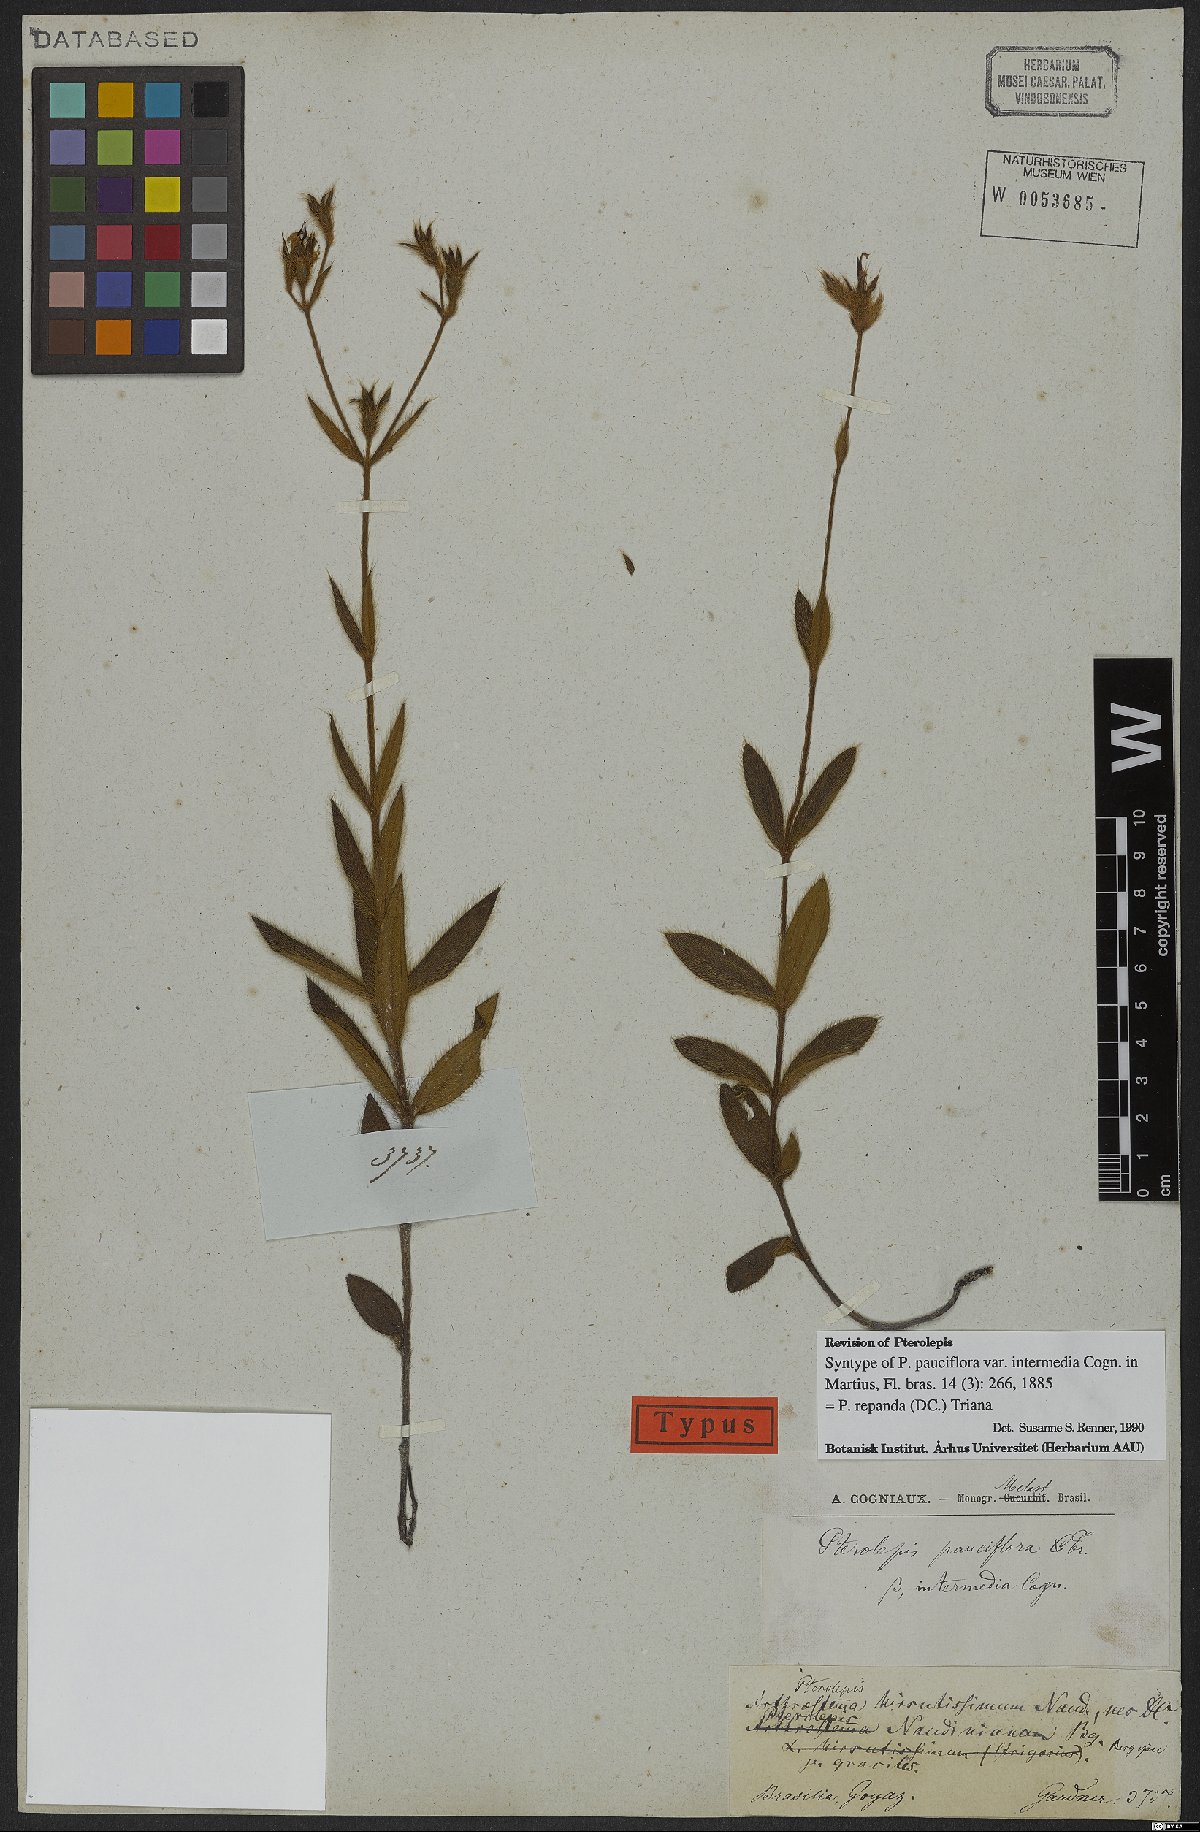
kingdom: Plantae
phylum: Tracheophyta
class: Magnoliopsida
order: Myrtales
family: Melastomataceae
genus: Pterolepis
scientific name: Pterolepis repanda
